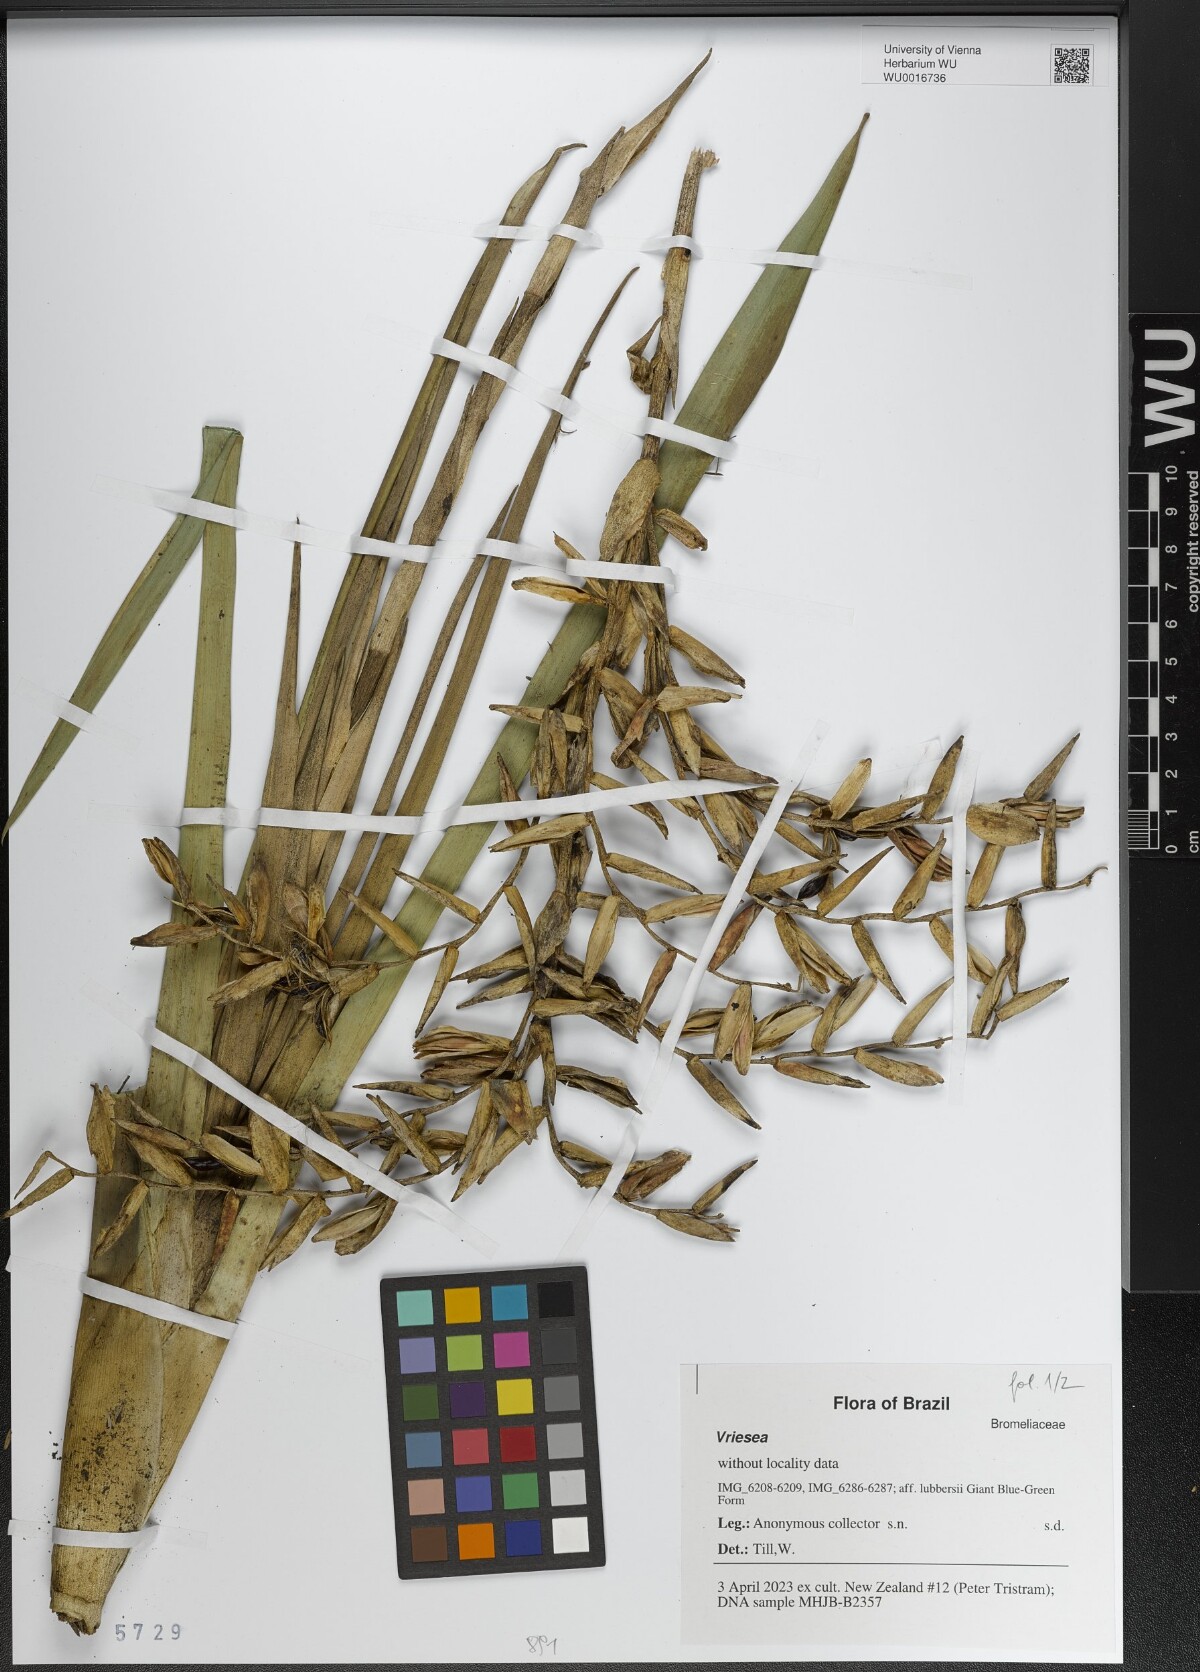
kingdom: Plantae
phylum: Tracheophyta
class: Liliopsida
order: Poales
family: Bromeliaceae
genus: Vriesea
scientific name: Vriesea
